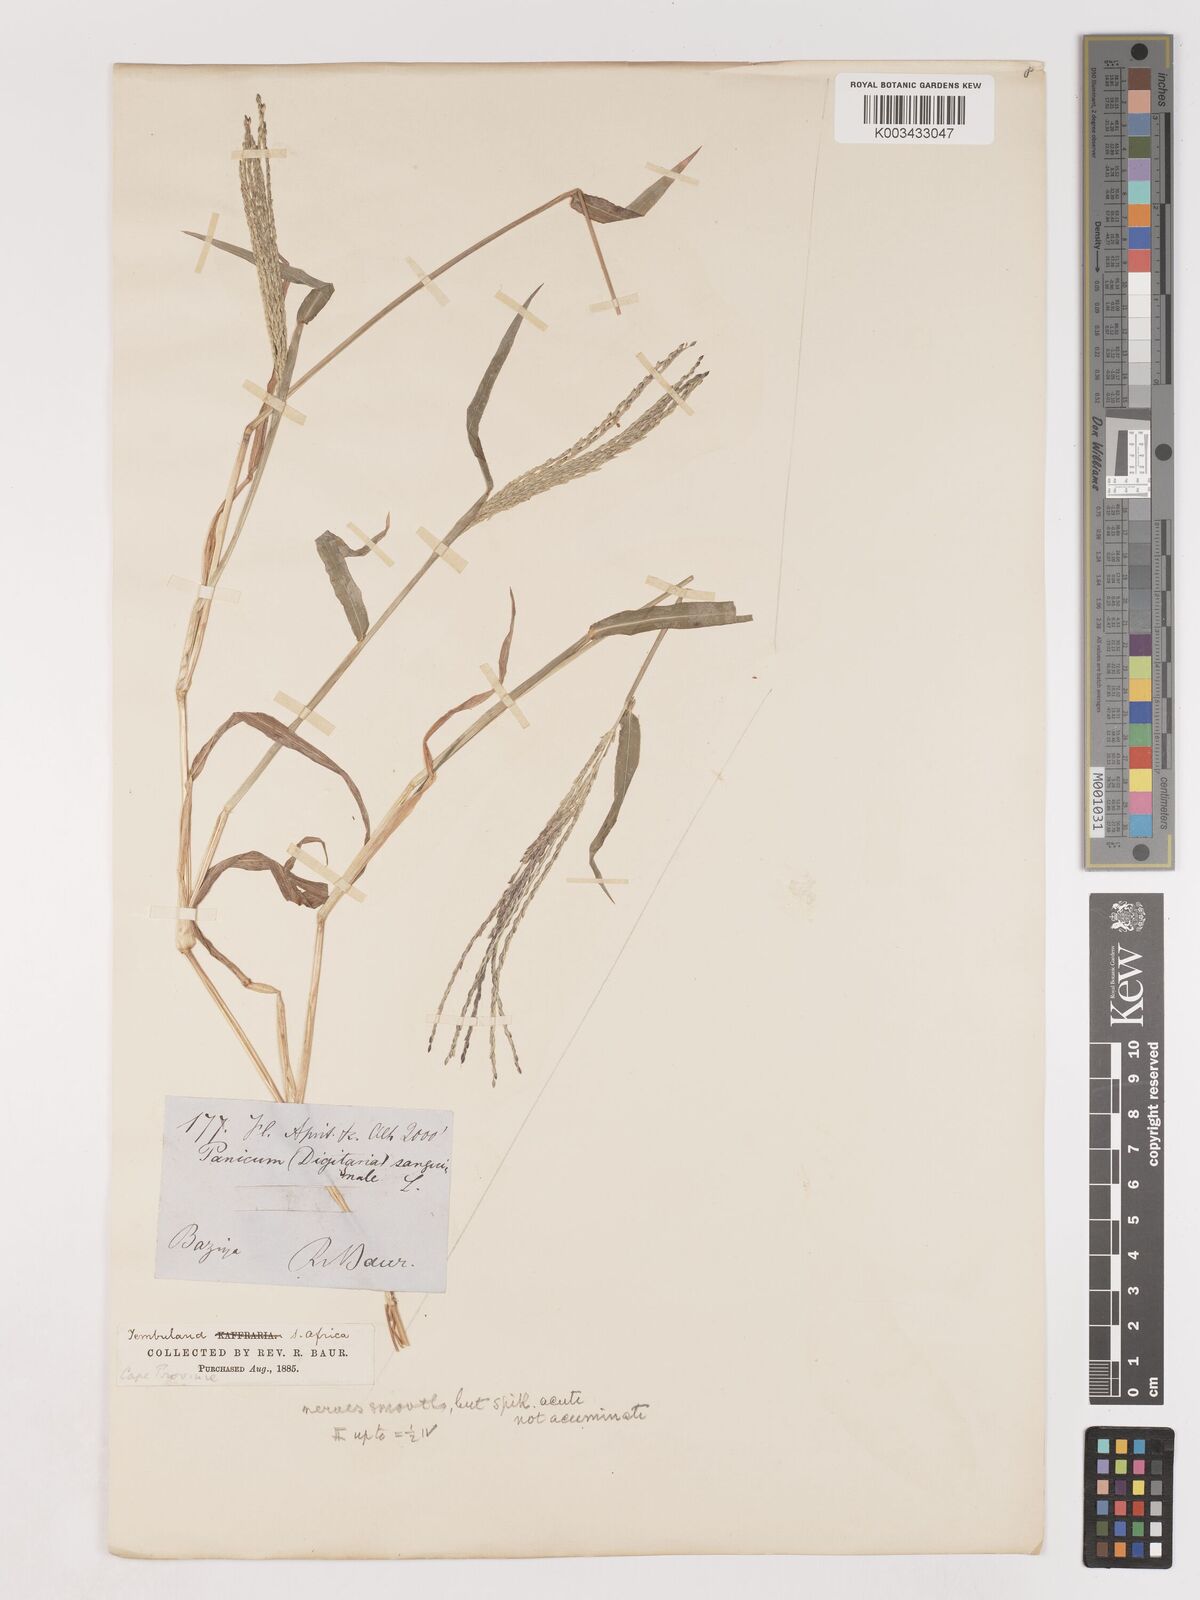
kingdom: Plantae
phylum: Tracheophyta
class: Liliopsida
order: Poales
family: Poaceae
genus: Digitaria
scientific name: Digitaria nuda
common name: Naked crabgrass
